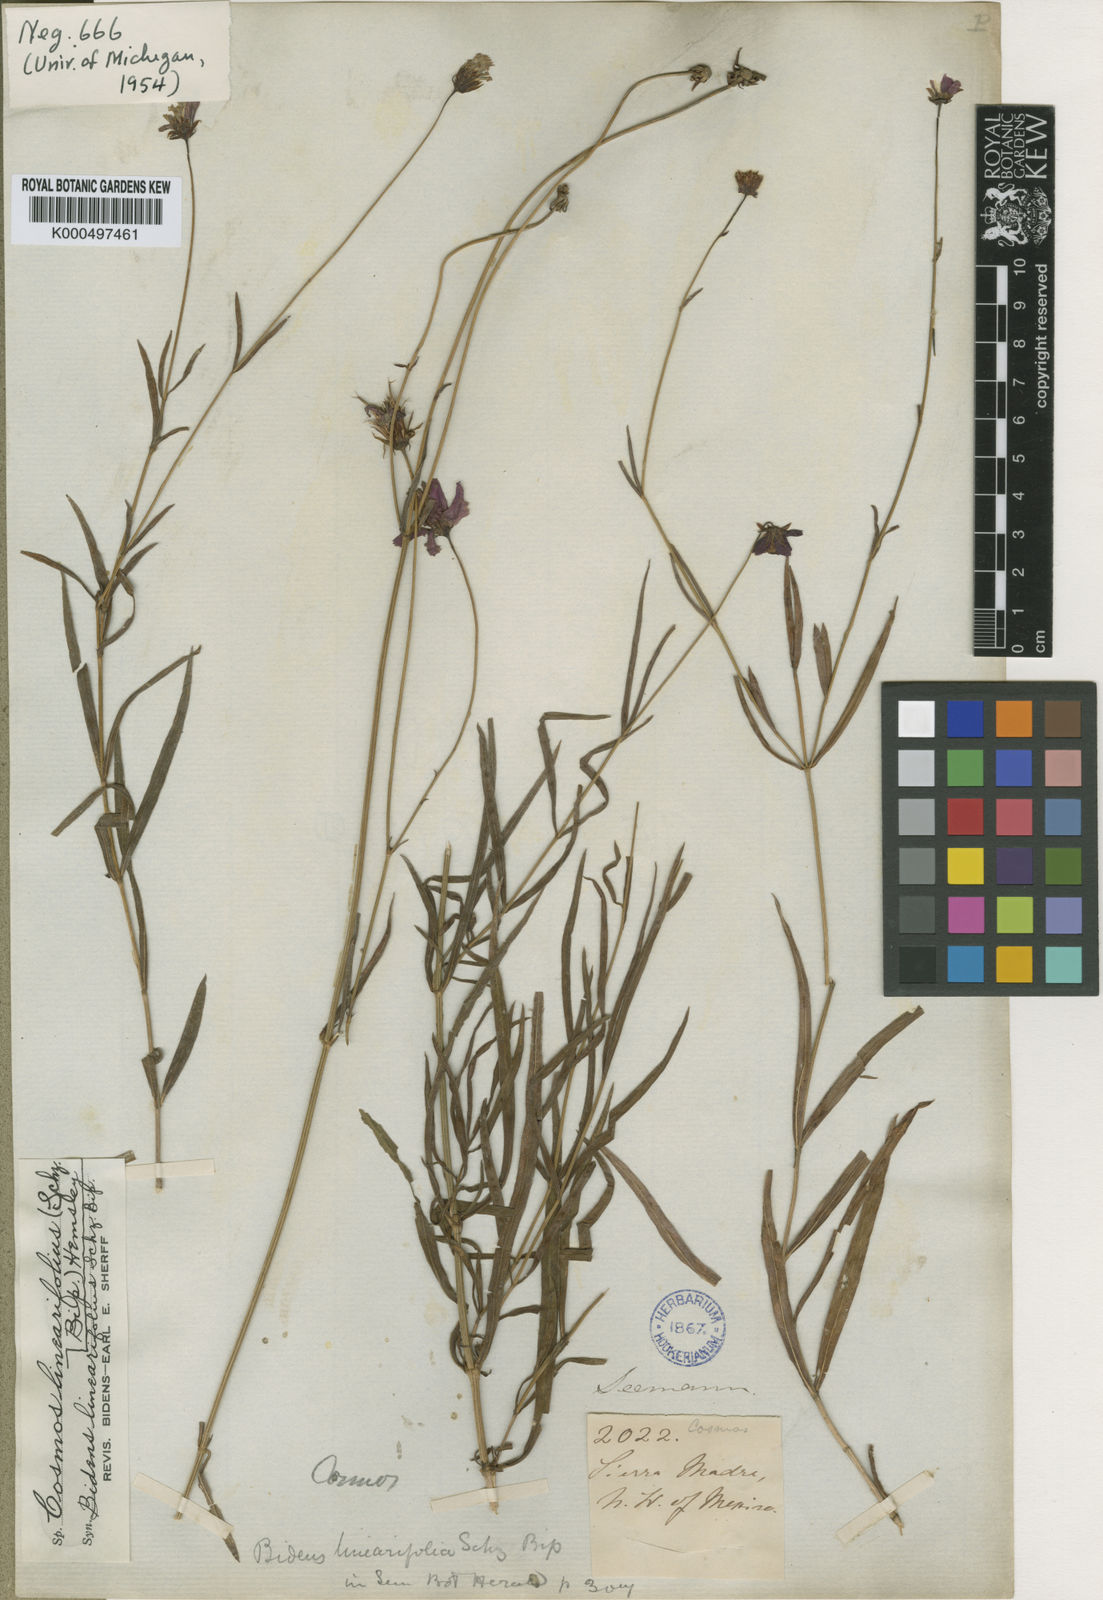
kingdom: Plantae
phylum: Tracheophyta
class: Magnoliopsida
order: Asterales
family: Asteraceae
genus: Cosmos
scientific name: Cosmos linearifolius
